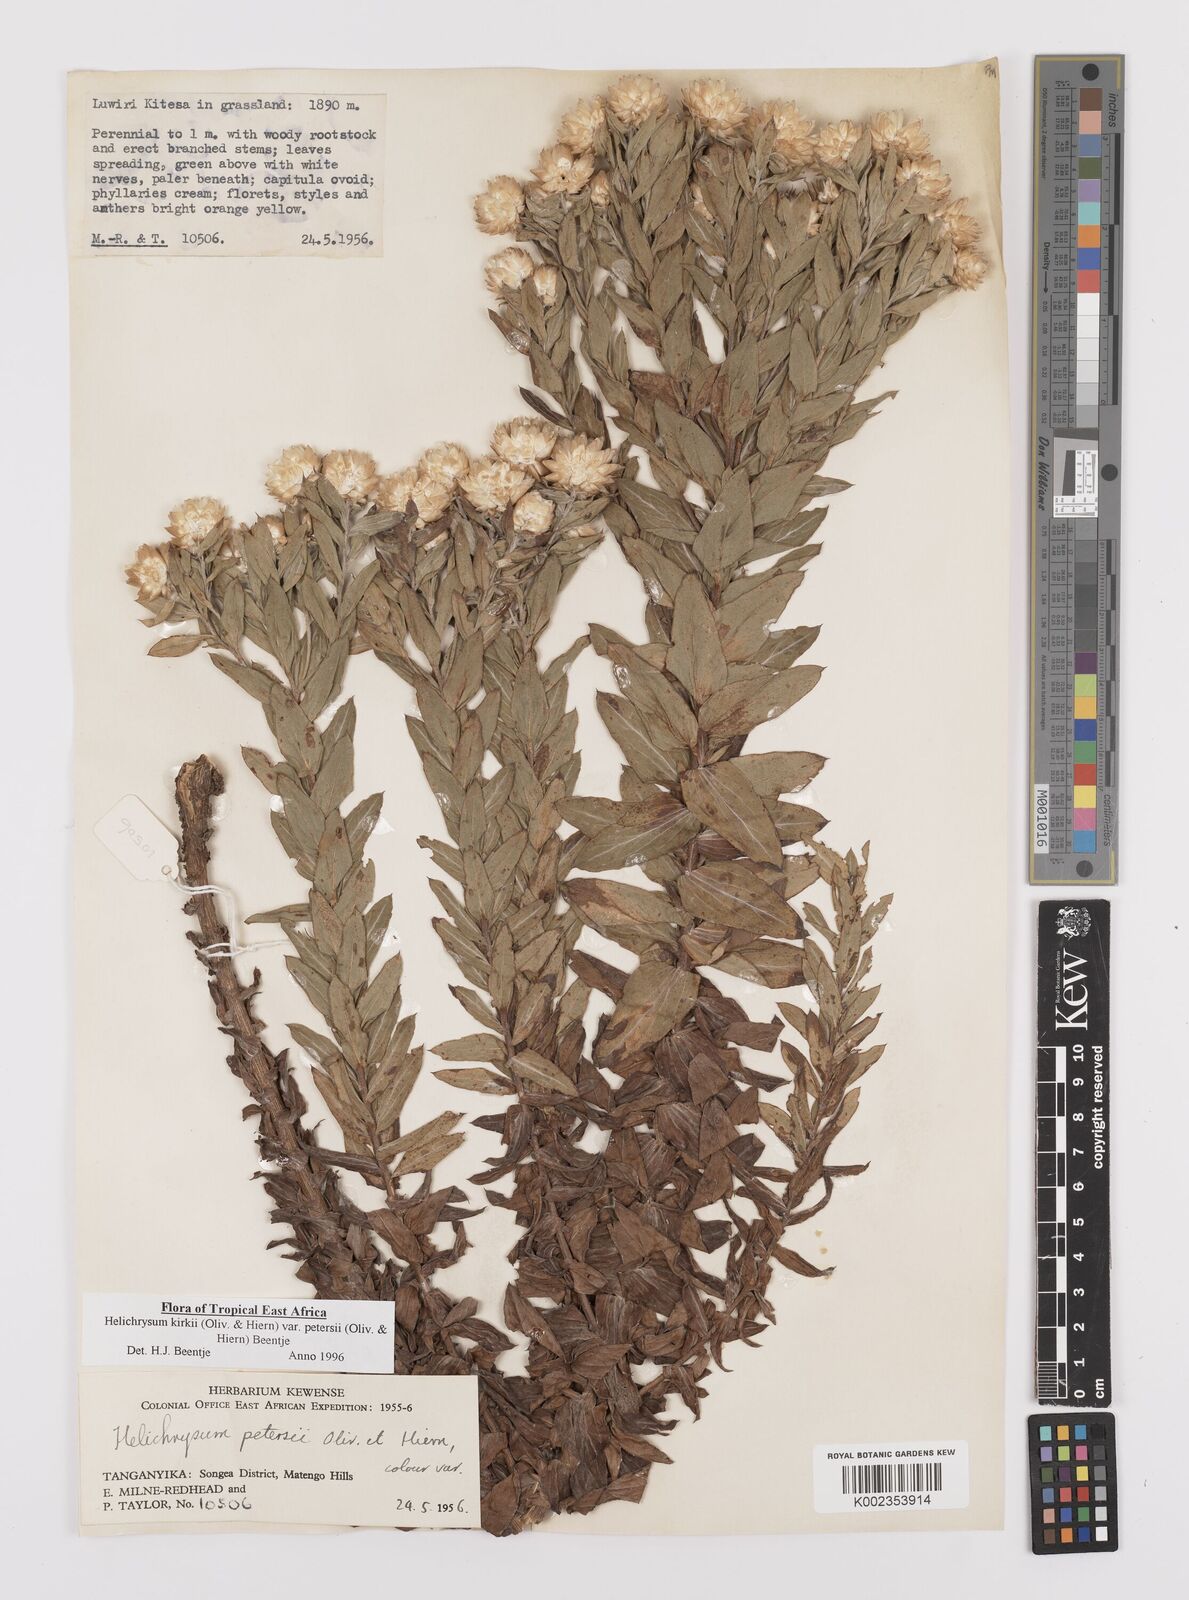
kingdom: Plantae
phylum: Tracheophyta
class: Magnoliopsida
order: Asterales
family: Asteraceae
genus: Helichrysum
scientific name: Helichrysum kirkii
